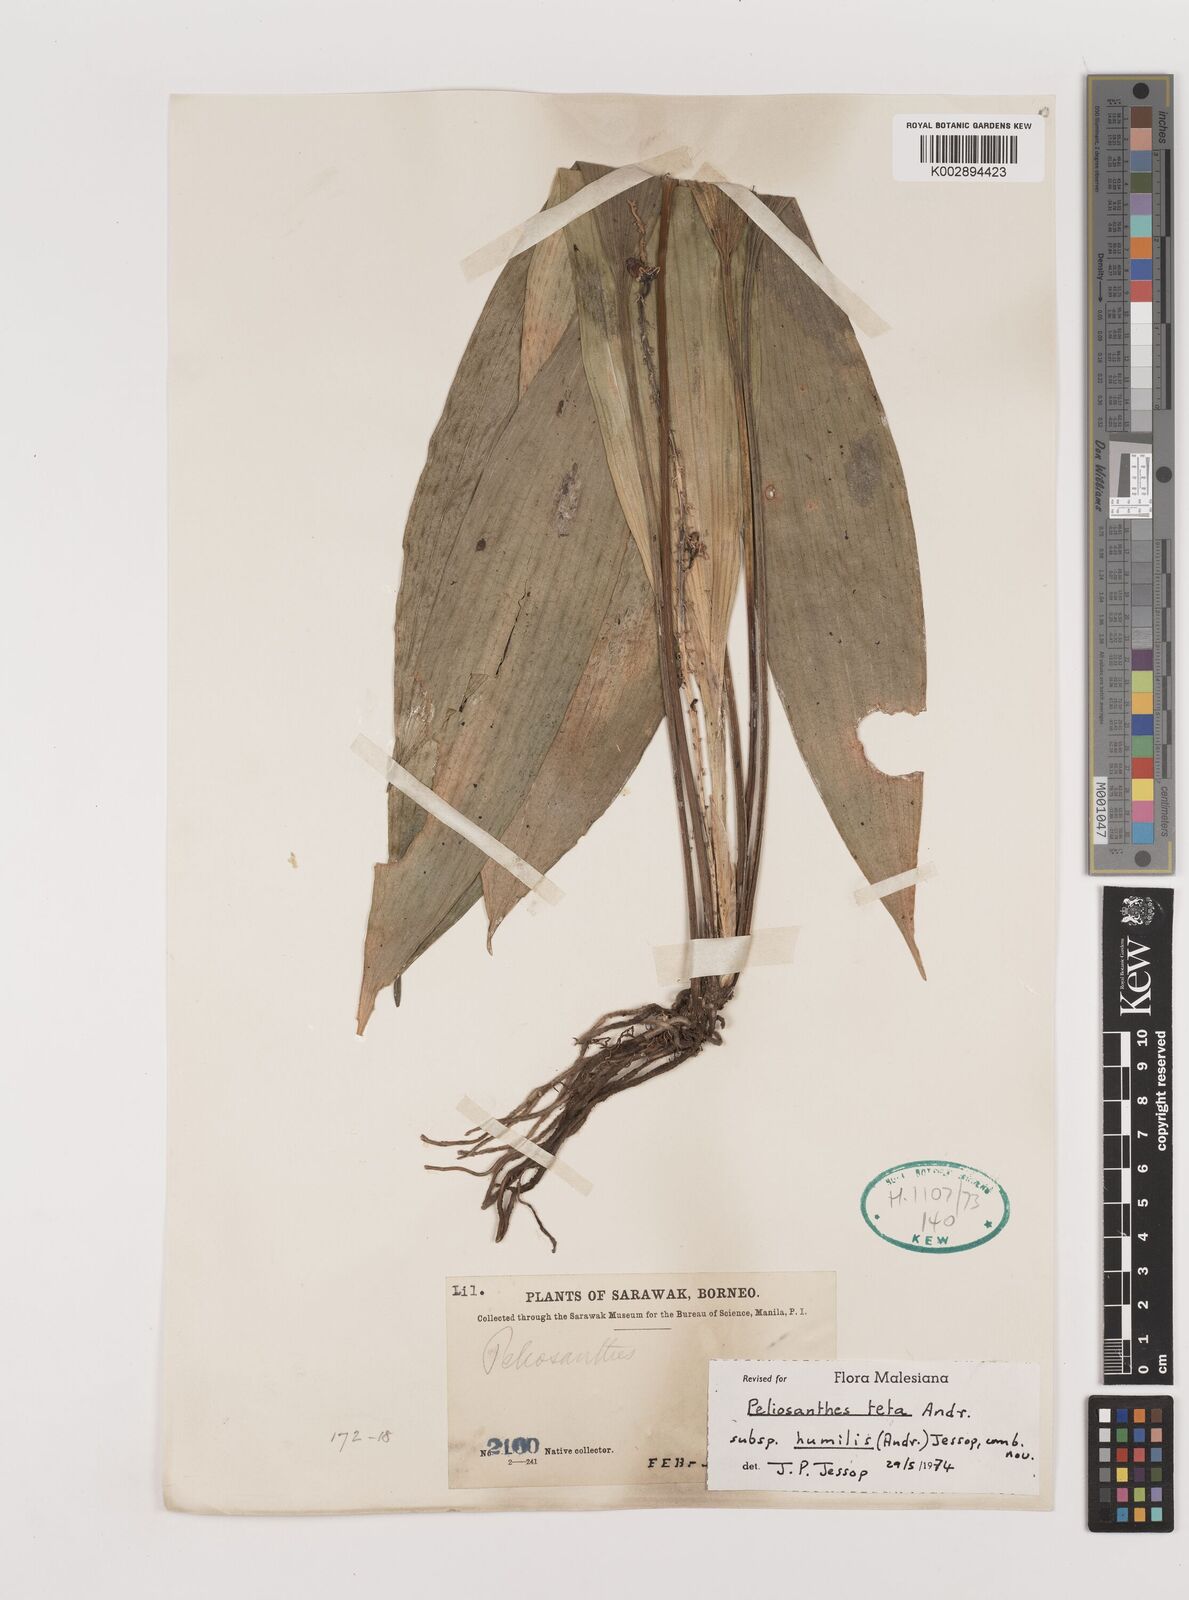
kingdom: Plantae
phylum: Tracheophyta
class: Liliopsida
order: Asparagales
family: Asparagaceae
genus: Peliosanthes
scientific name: Peliosanthes teta
